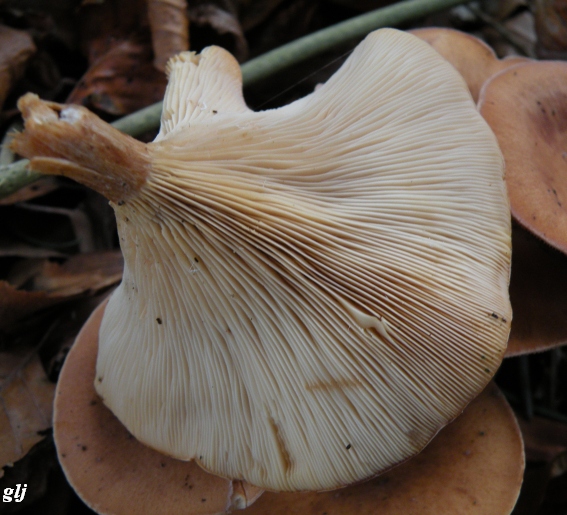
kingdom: Fungi
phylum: Basidiomycota
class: Agaricomycetes
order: Agaricales
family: Tricholomataceae
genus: Paralepista
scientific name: Paralepista flaccida
